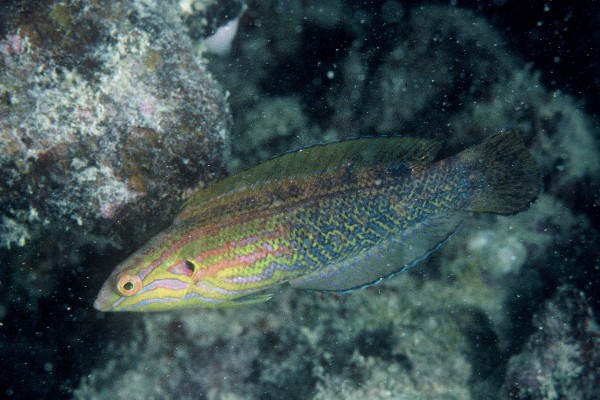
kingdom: Animalia
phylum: Chordata
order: Perciformes
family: Labridae
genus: Coris
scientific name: Coris venusta
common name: Elegant coris
